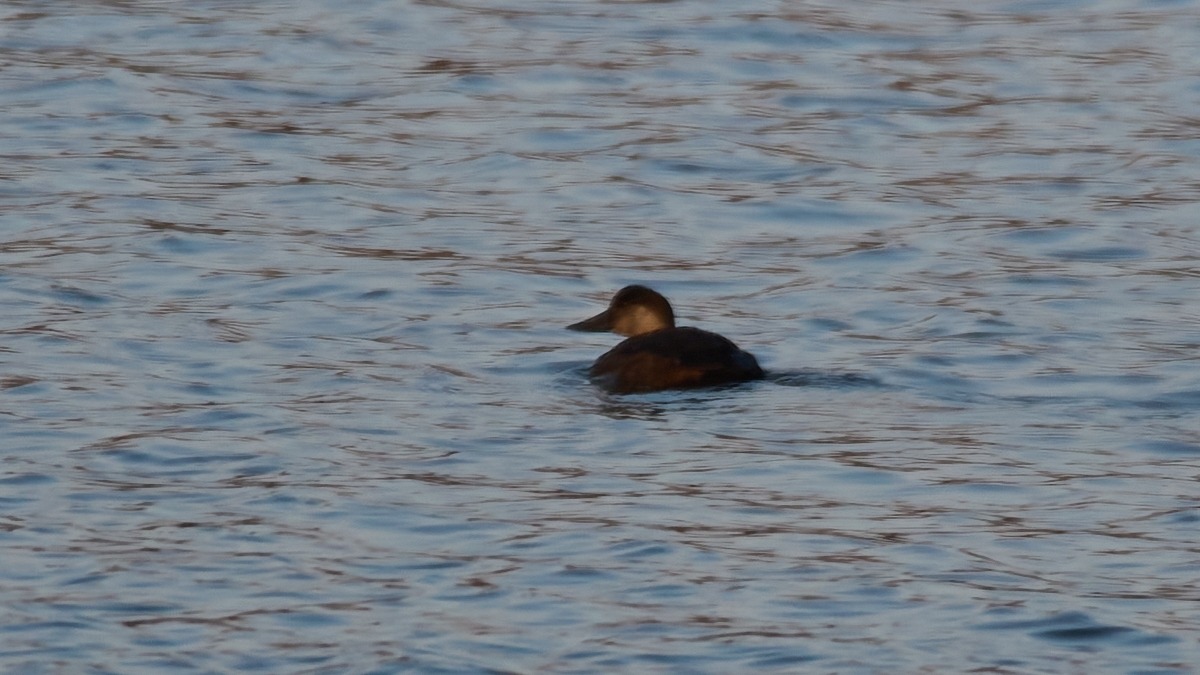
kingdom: Animalia
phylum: Chordata
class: Aves
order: Anseriformes
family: Anatidae
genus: Melanitta
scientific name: Melanitta nigra
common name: Sortand
